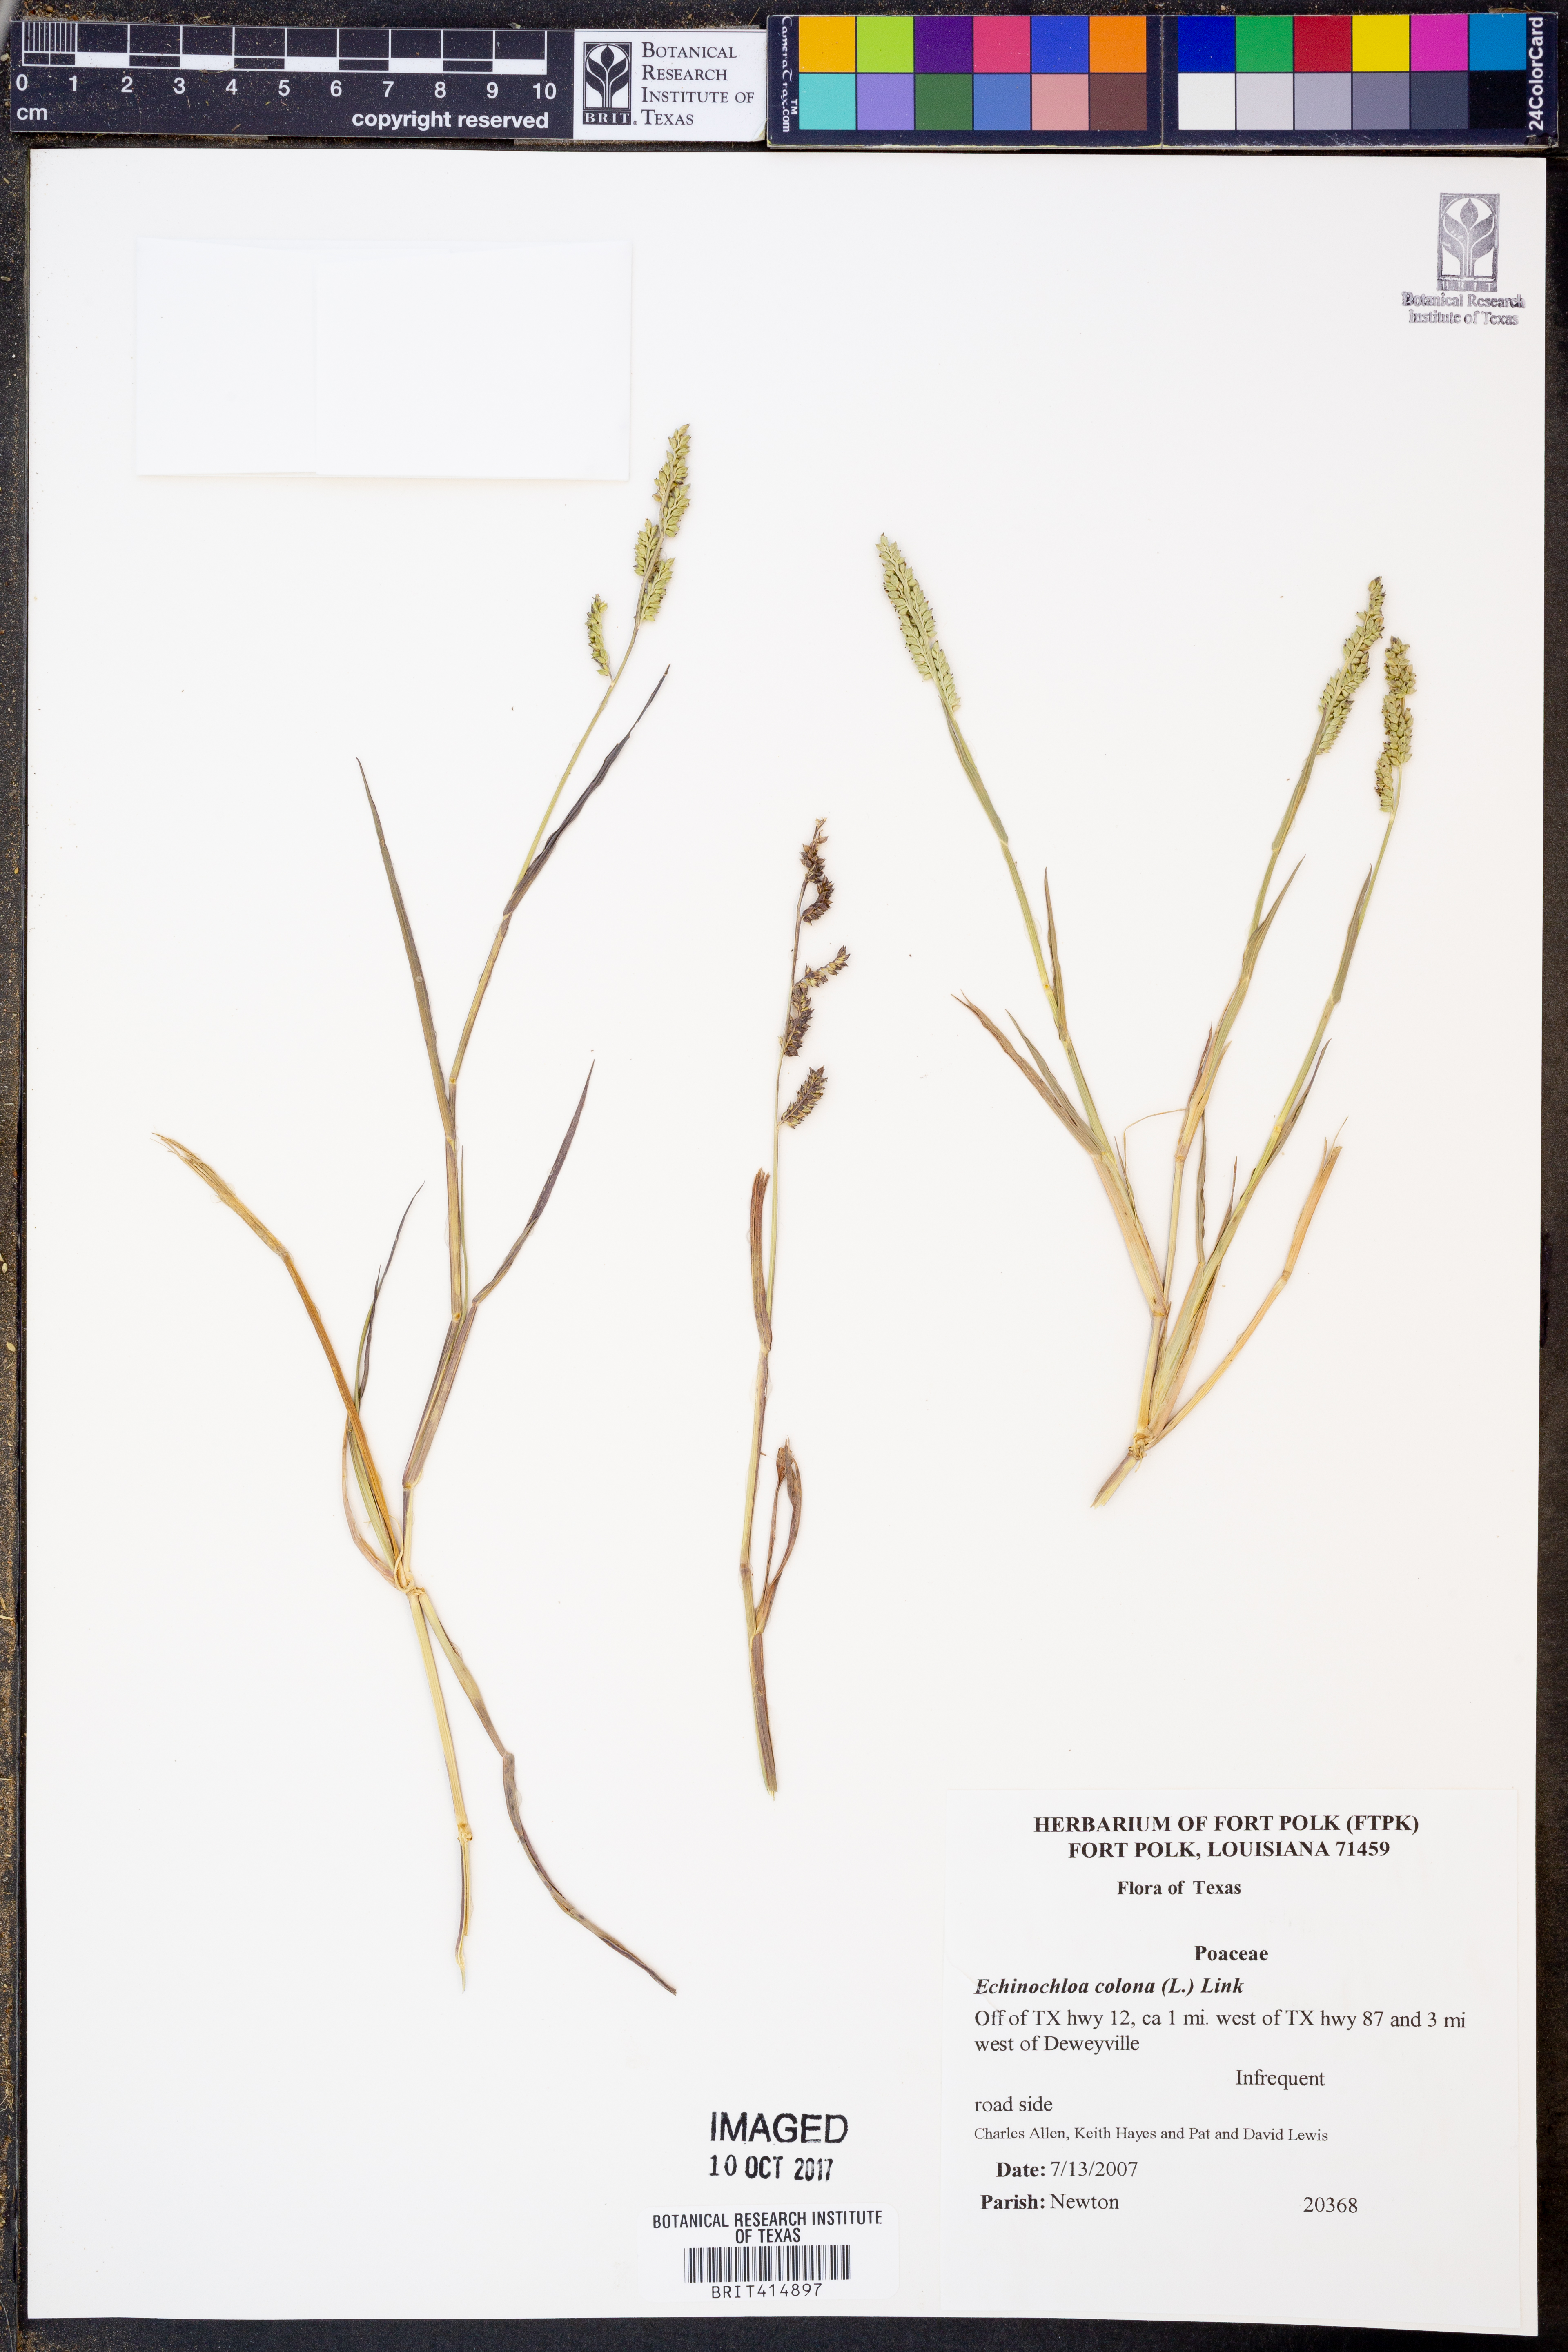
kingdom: Plantae
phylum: Tracheophyta
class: Liliopsida
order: Poales
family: Poaceae
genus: Echinochloa
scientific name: Echinochloa colonum
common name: Jungle rice
